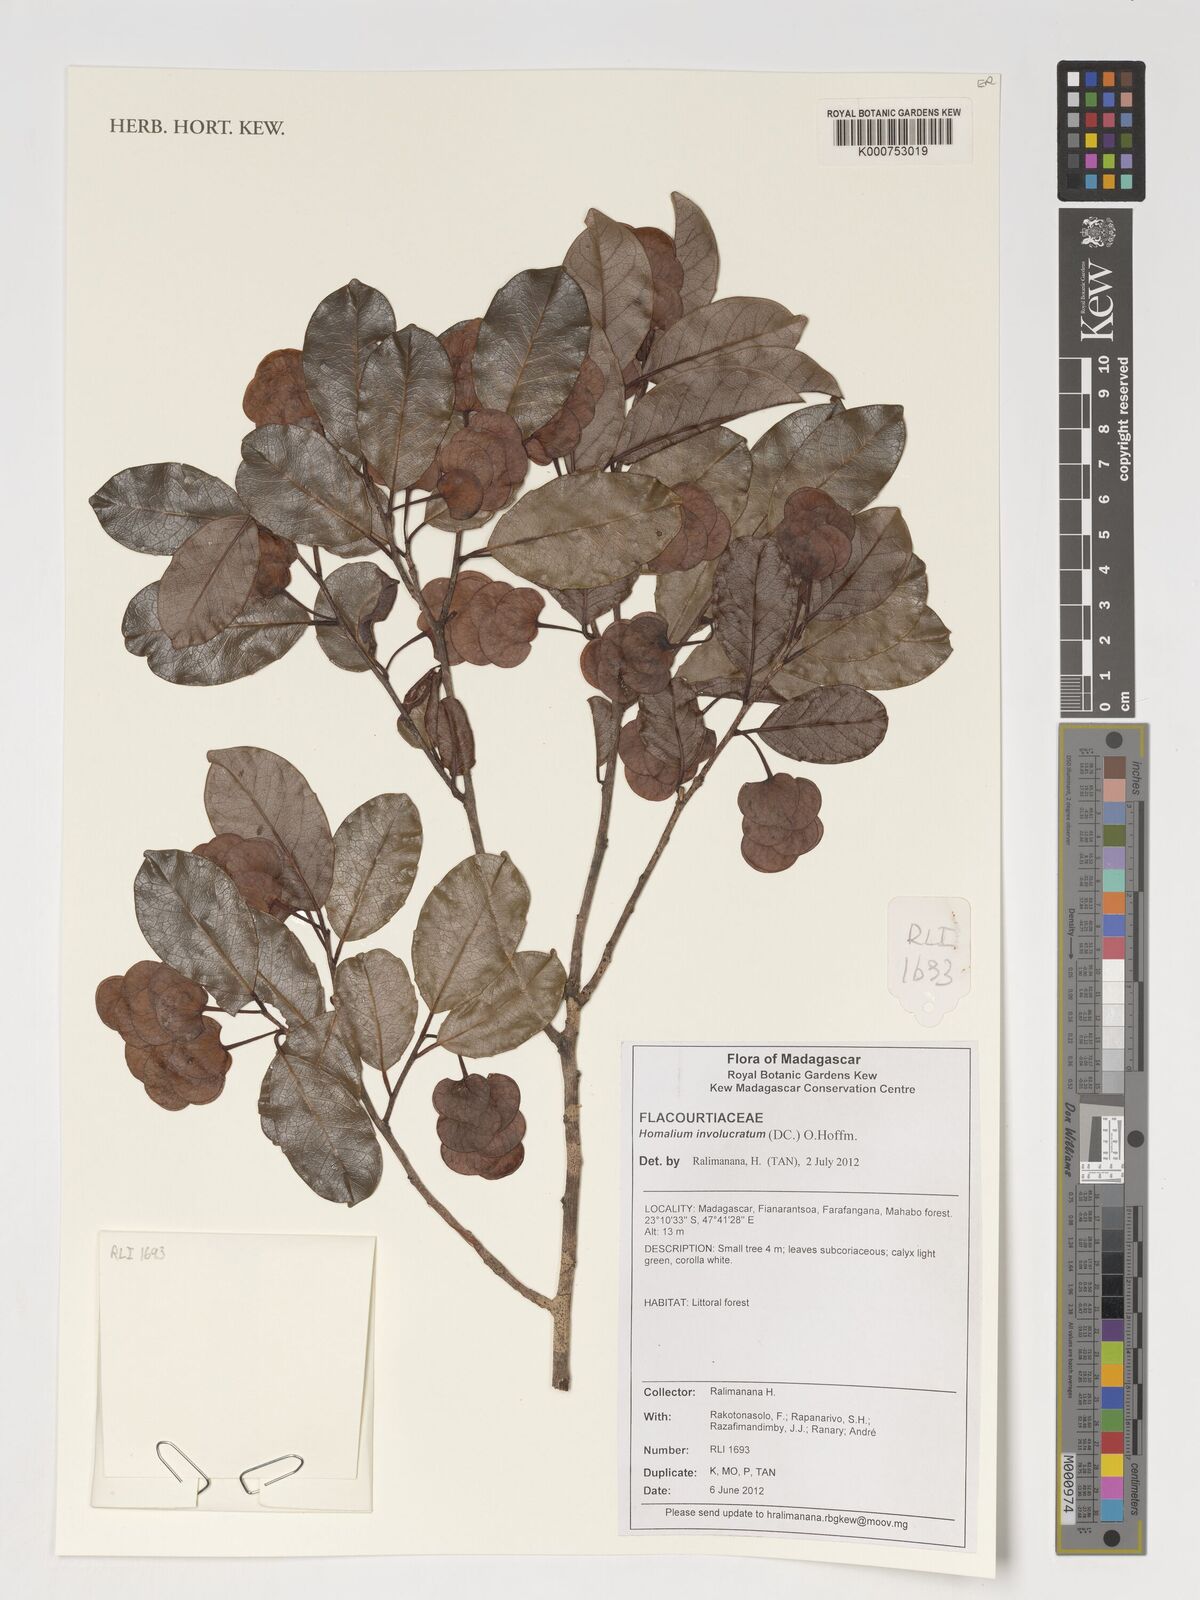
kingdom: Plantae
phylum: Tracheophyta
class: Magnoliopsida
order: Malpighiales
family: Salicaceae
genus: Homalium
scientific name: Homalium involucratum
